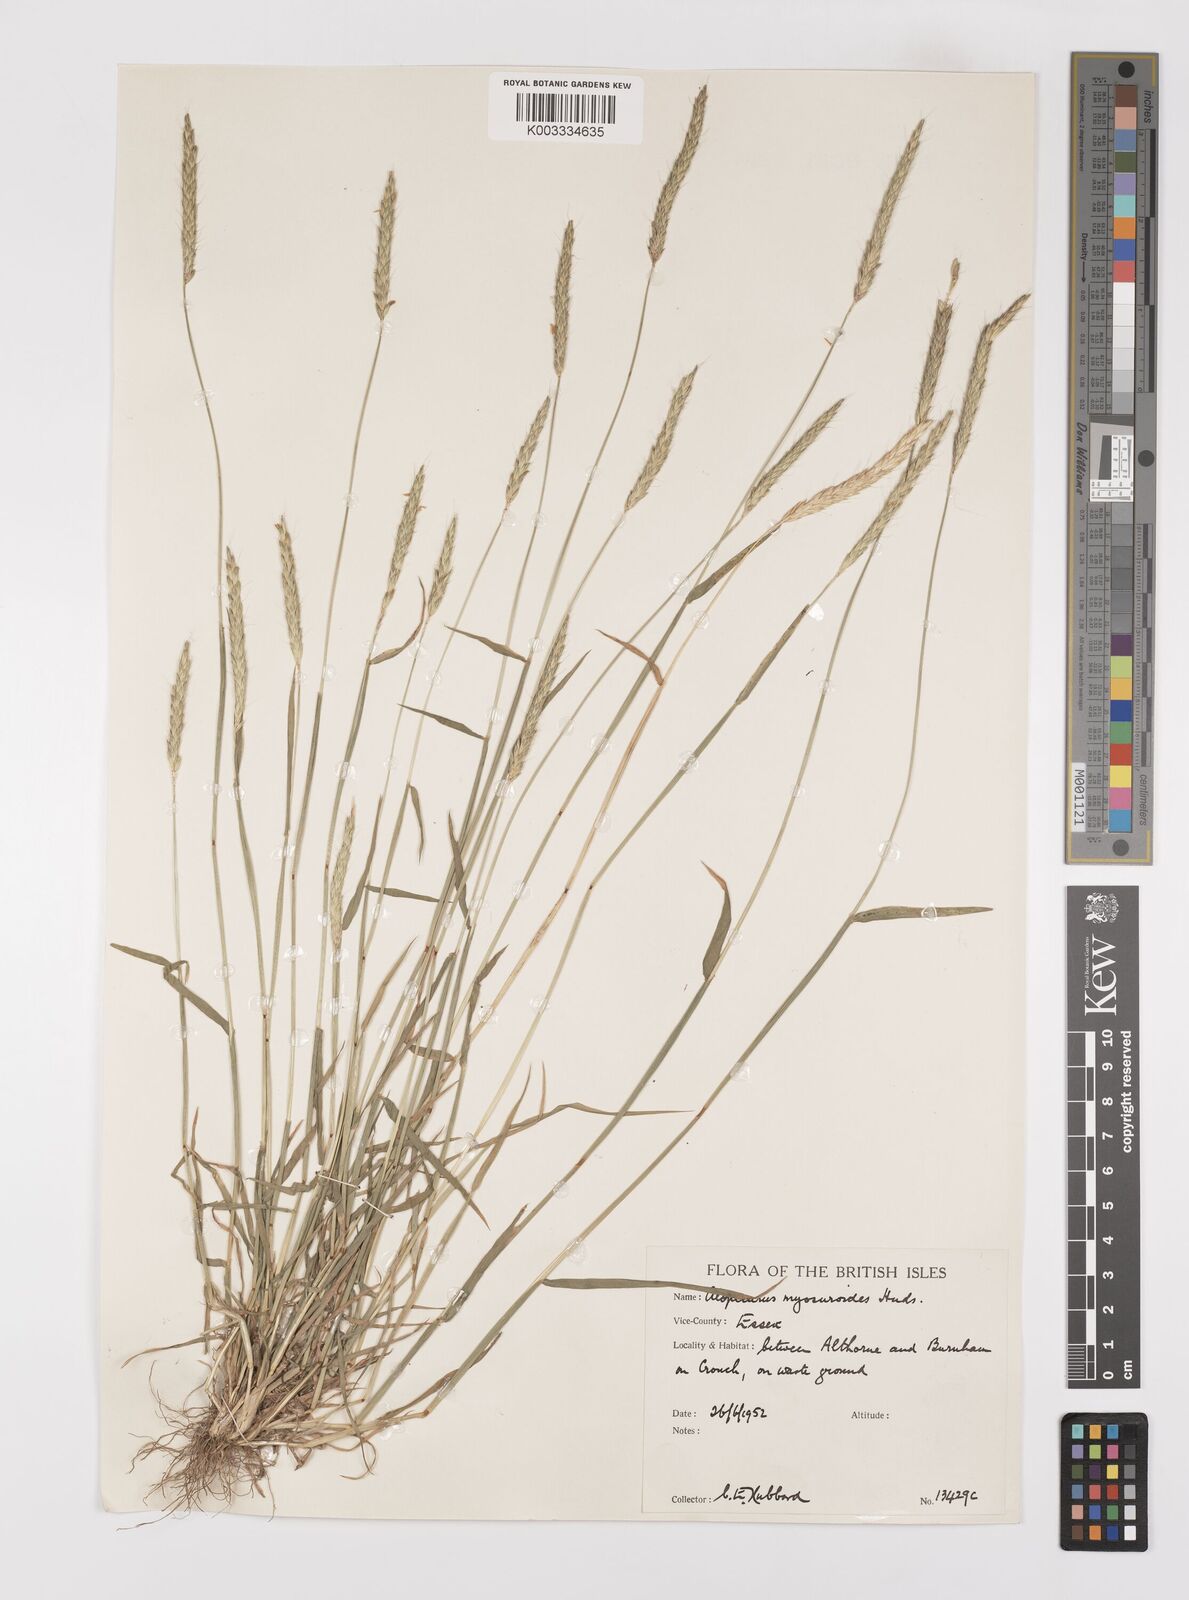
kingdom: Plantae
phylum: Tracheophyta
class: Liliopsida
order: Poales
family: Poaceae
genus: Alopecurus
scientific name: Alopecurus myosuroides
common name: Black-grass
